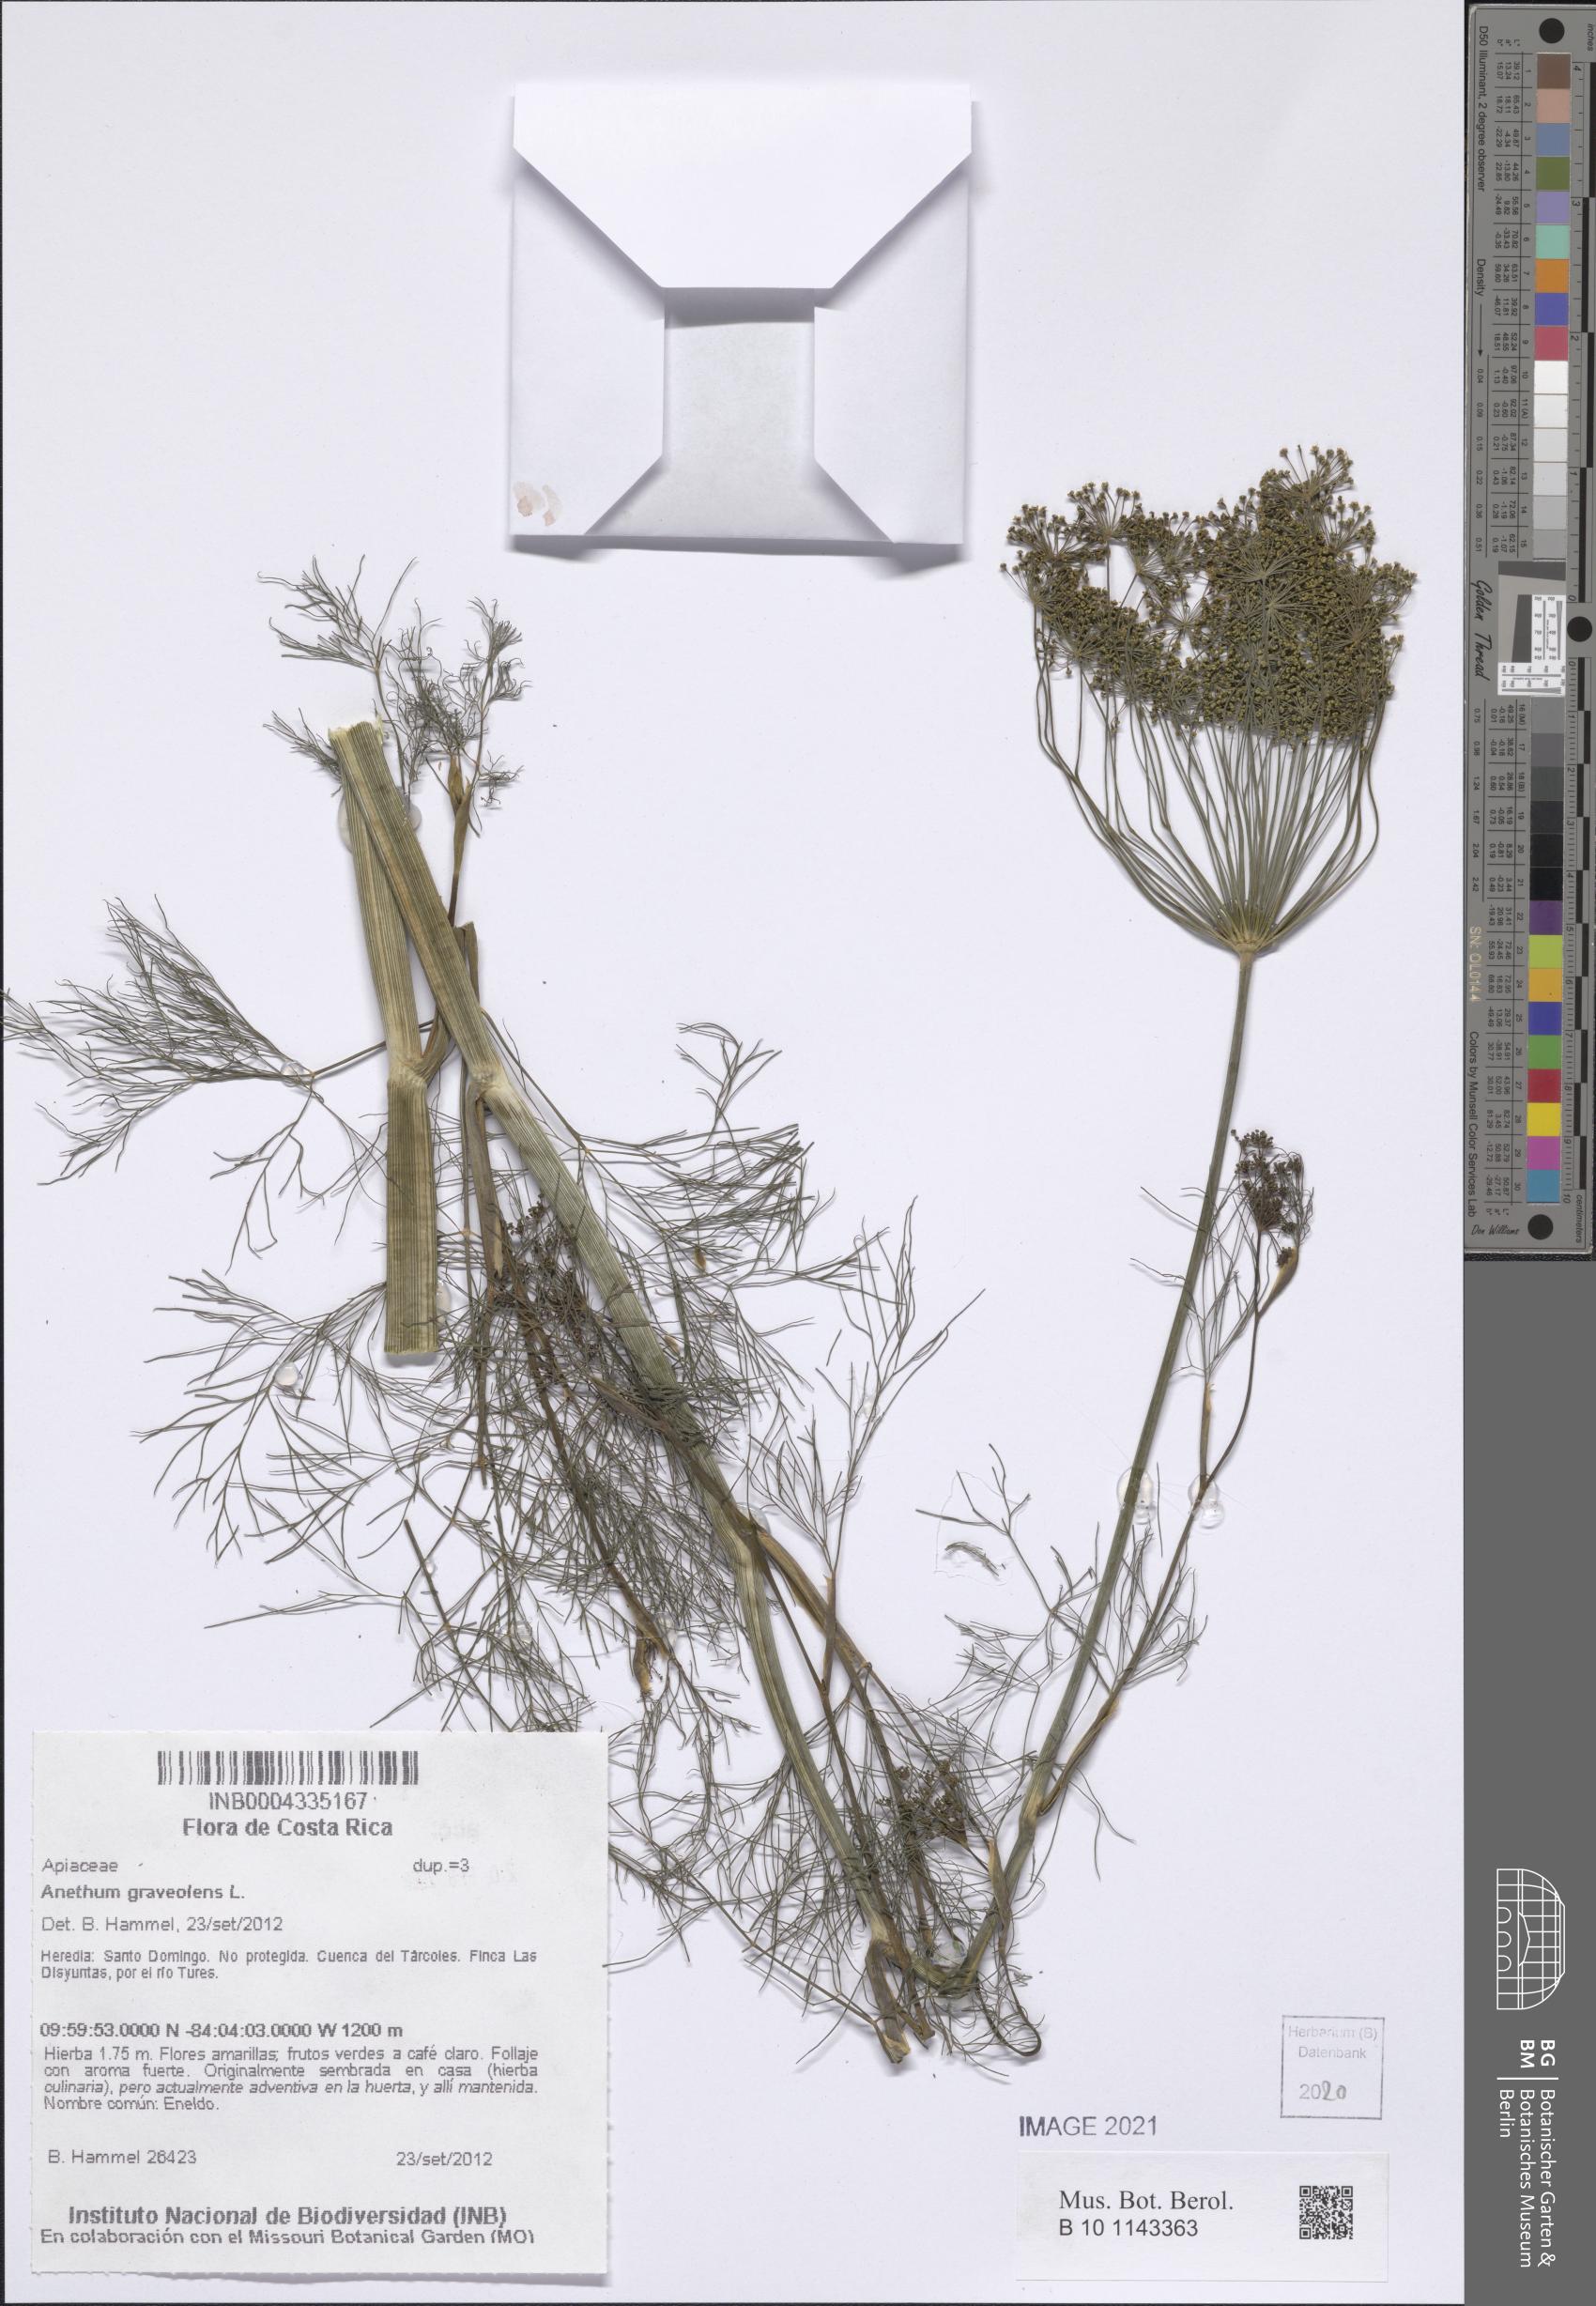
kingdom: Plantae
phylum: Tracheophyta
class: Magnoliopsida
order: Apiales
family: Apiaceae
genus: Anethum
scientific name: Anethum graveolens
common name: Dill
